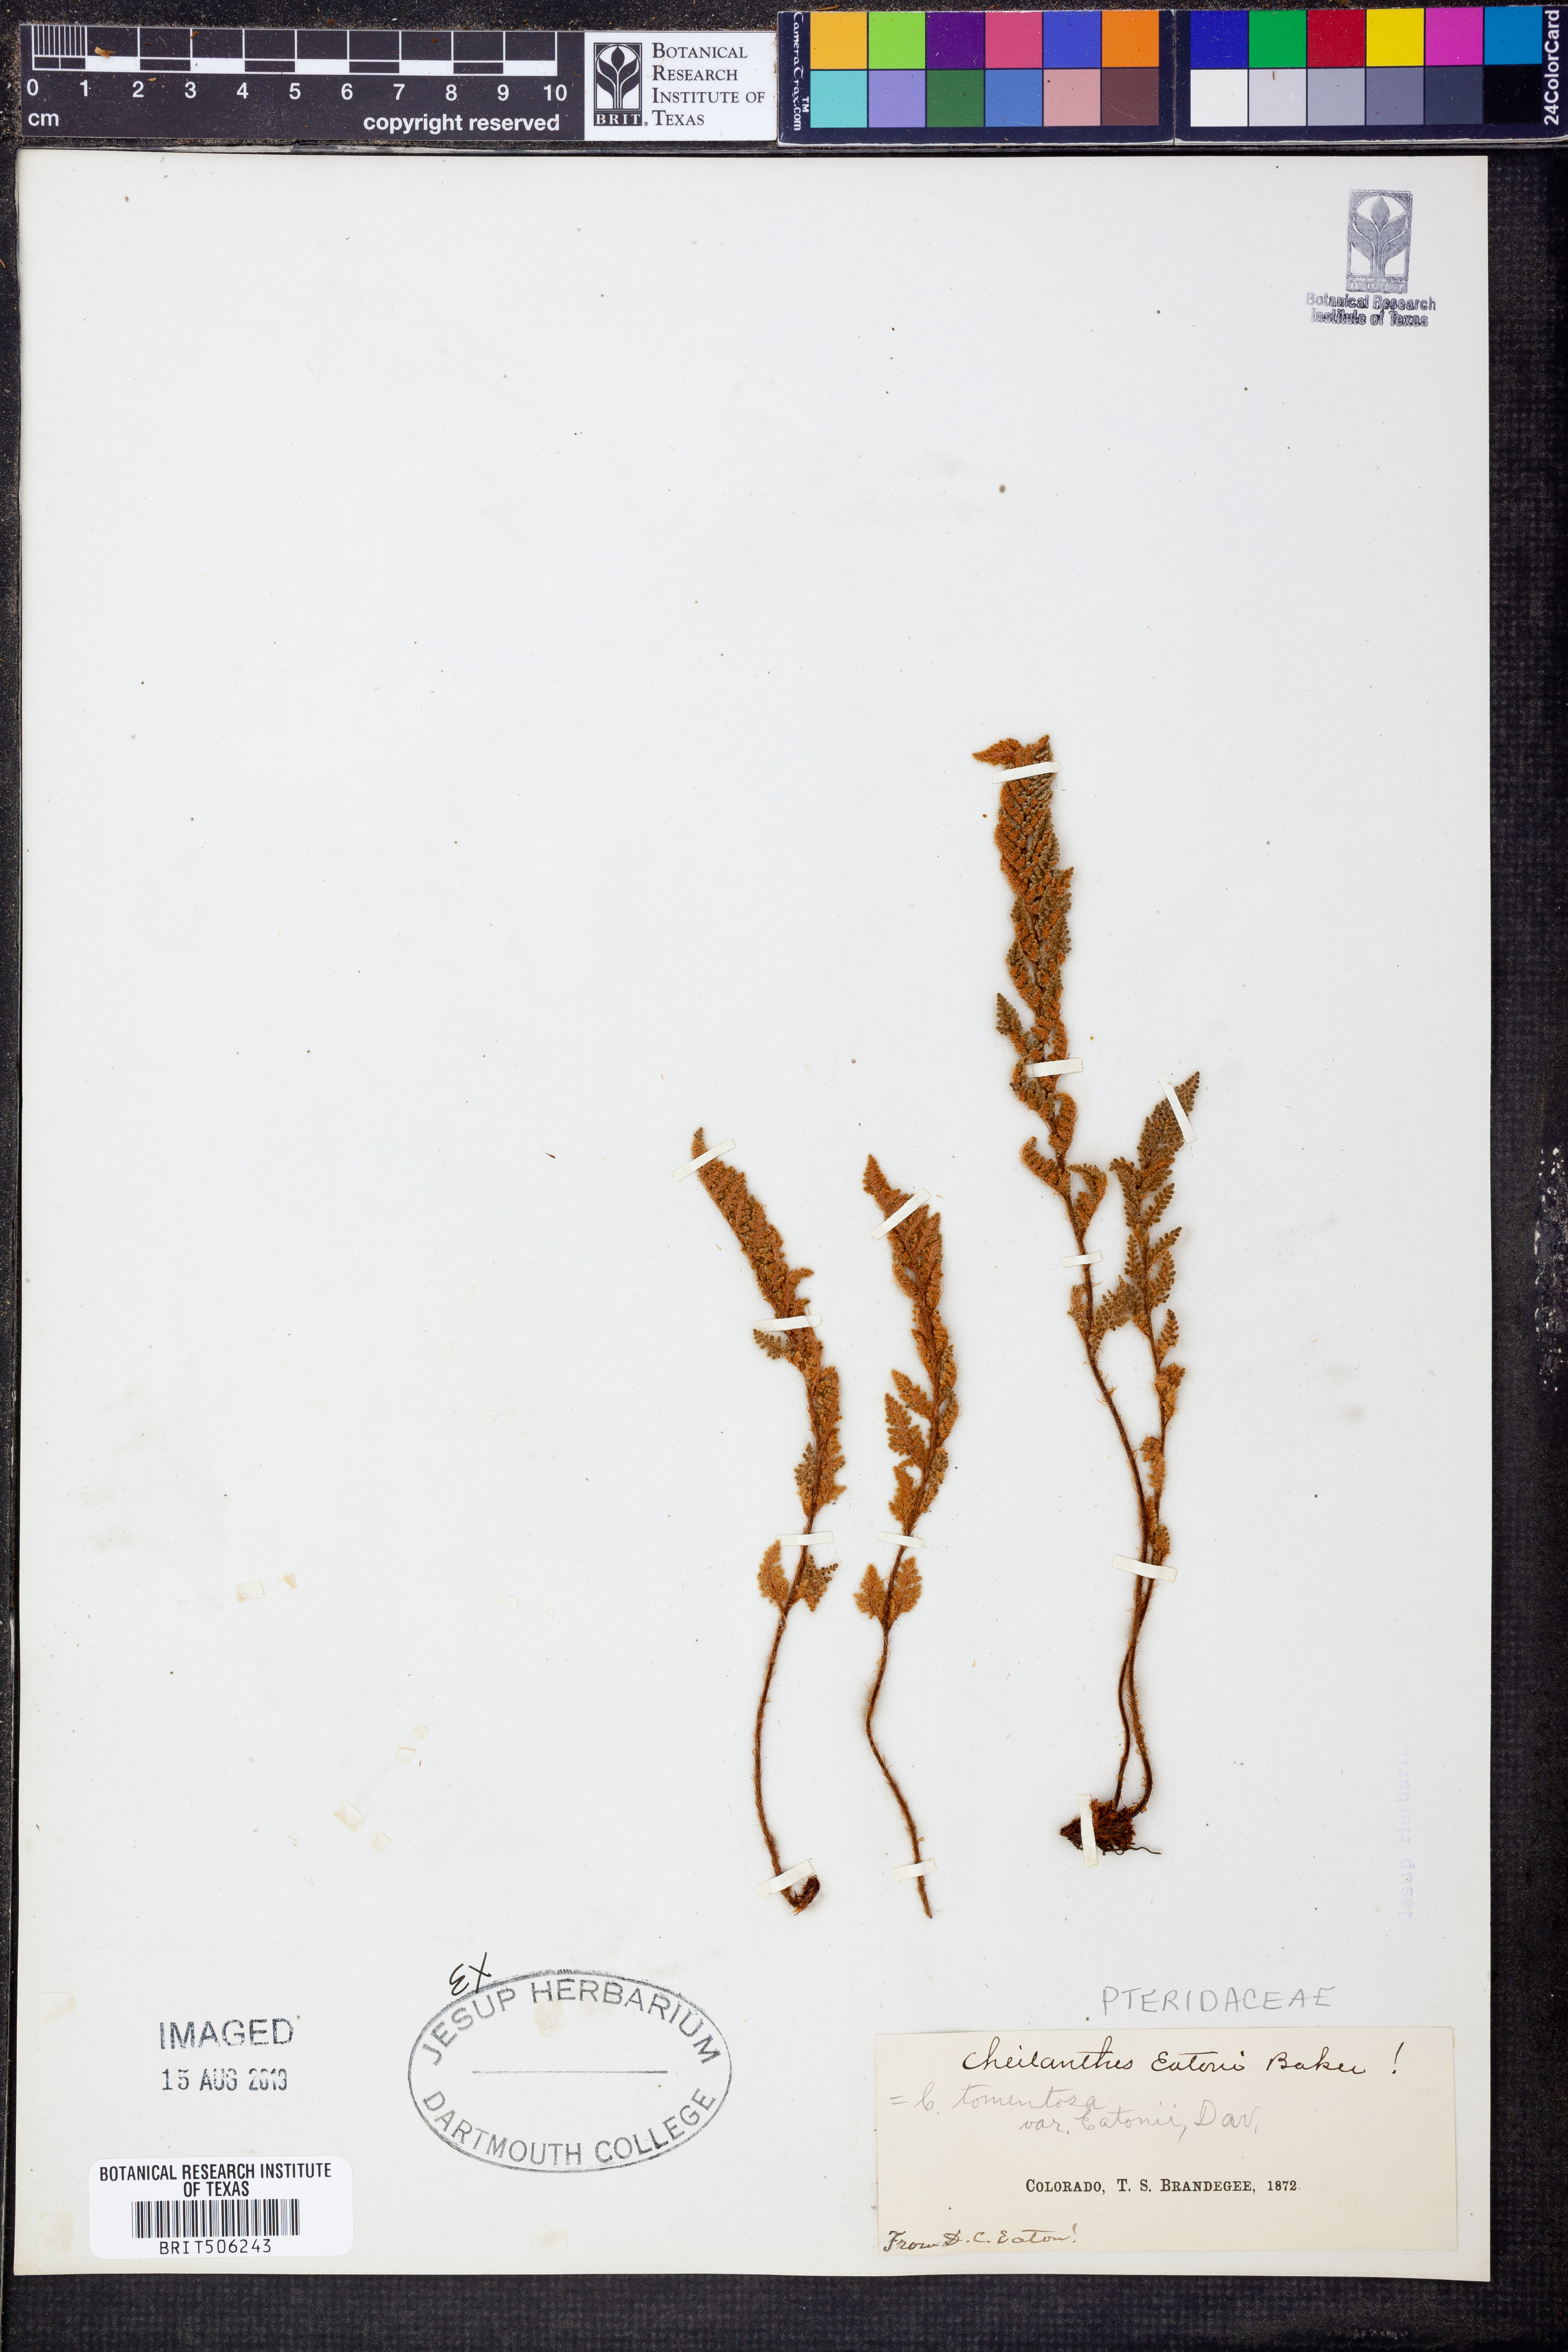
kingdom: Plantae
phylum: Tracheophyta
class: Polypodiopsida
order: Polypodiales
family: Pteridaceae
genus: Myriopteris
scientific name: Myriopteris rufa
